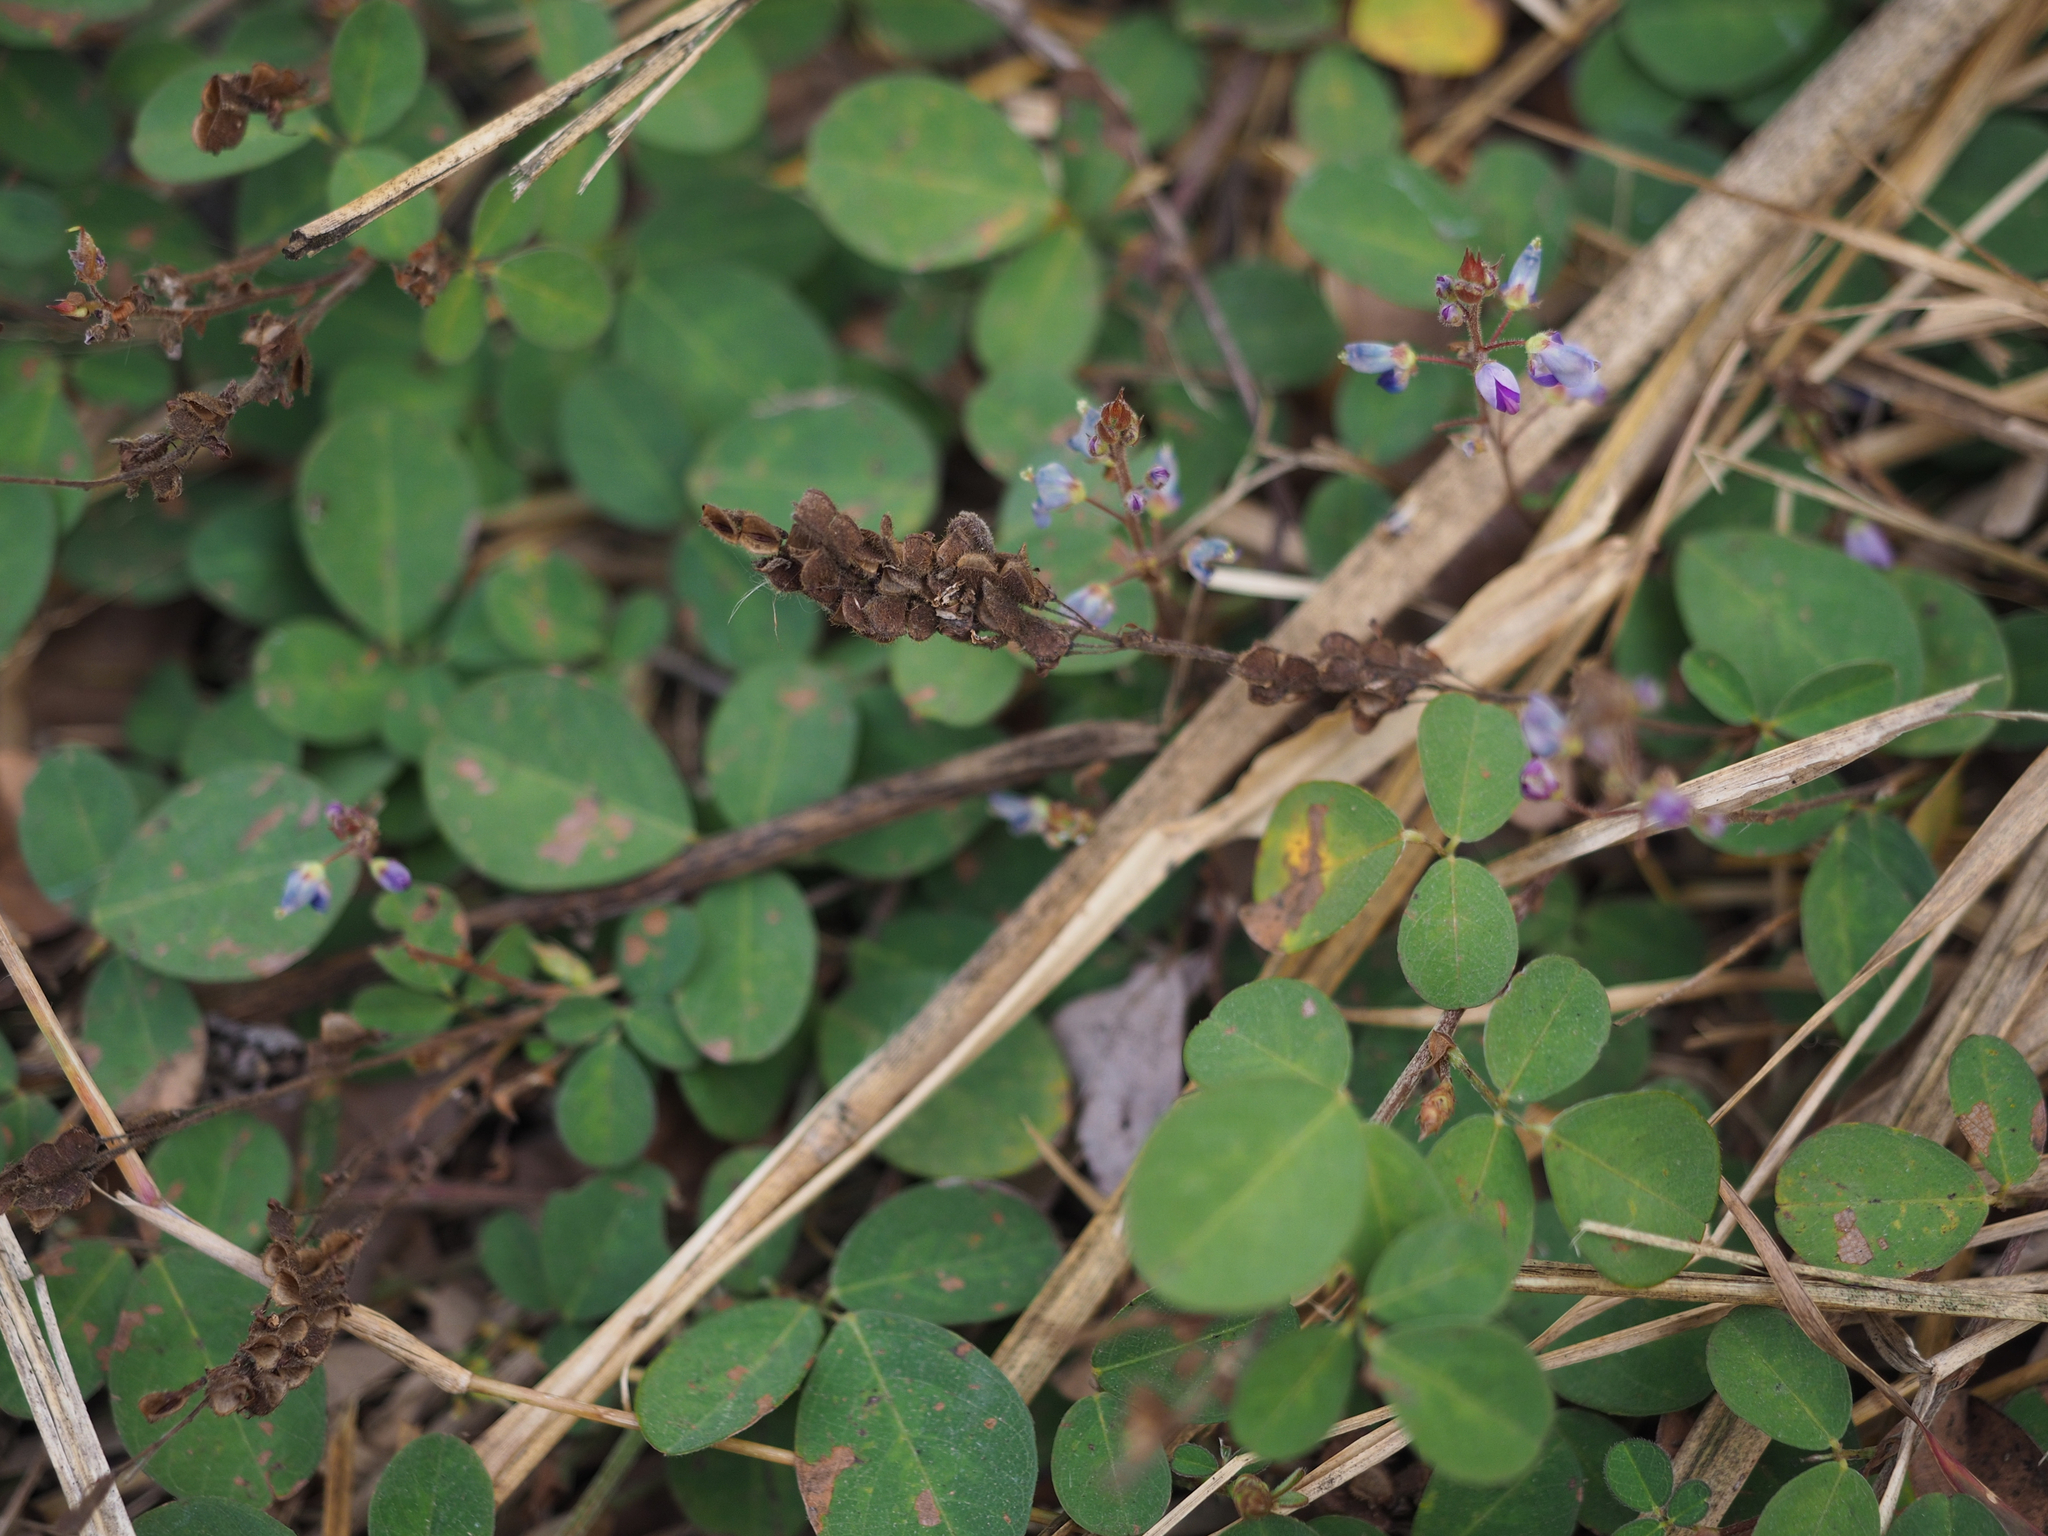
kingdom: Plantae
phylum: Tracheophyta
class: Magnoliopsida
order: Fabales
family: Fabaceae
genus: Grona
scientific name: Grona heterocarpos
